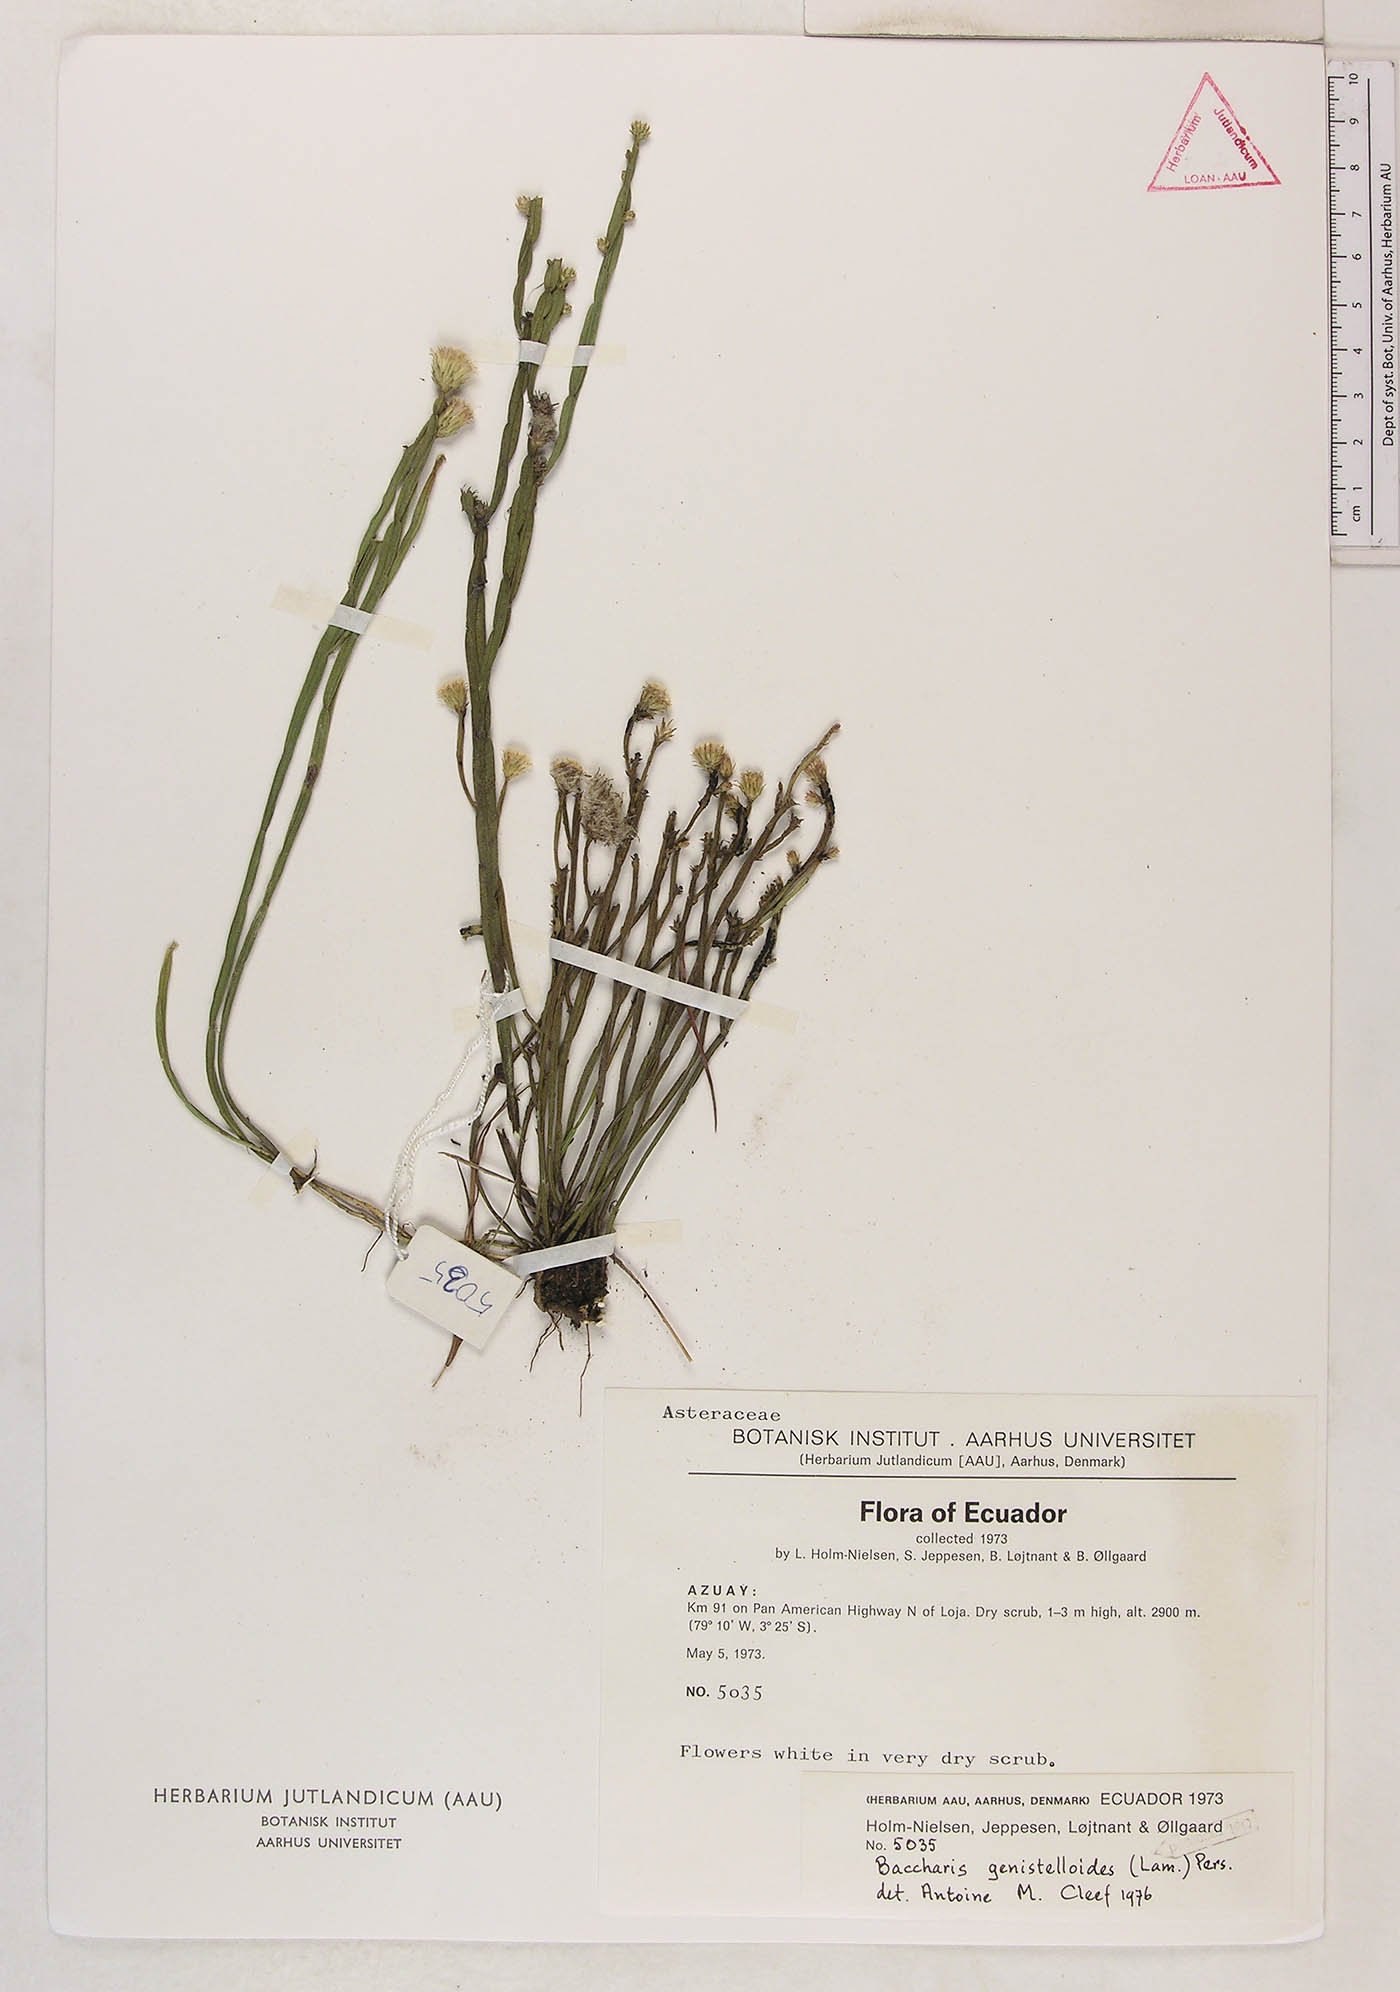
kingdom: Plantae
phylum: Tracheophyta
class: Magnoliopsida
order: Asterales
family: Asteraceae
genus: Baccharis
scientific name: Baccharis genistelloides
